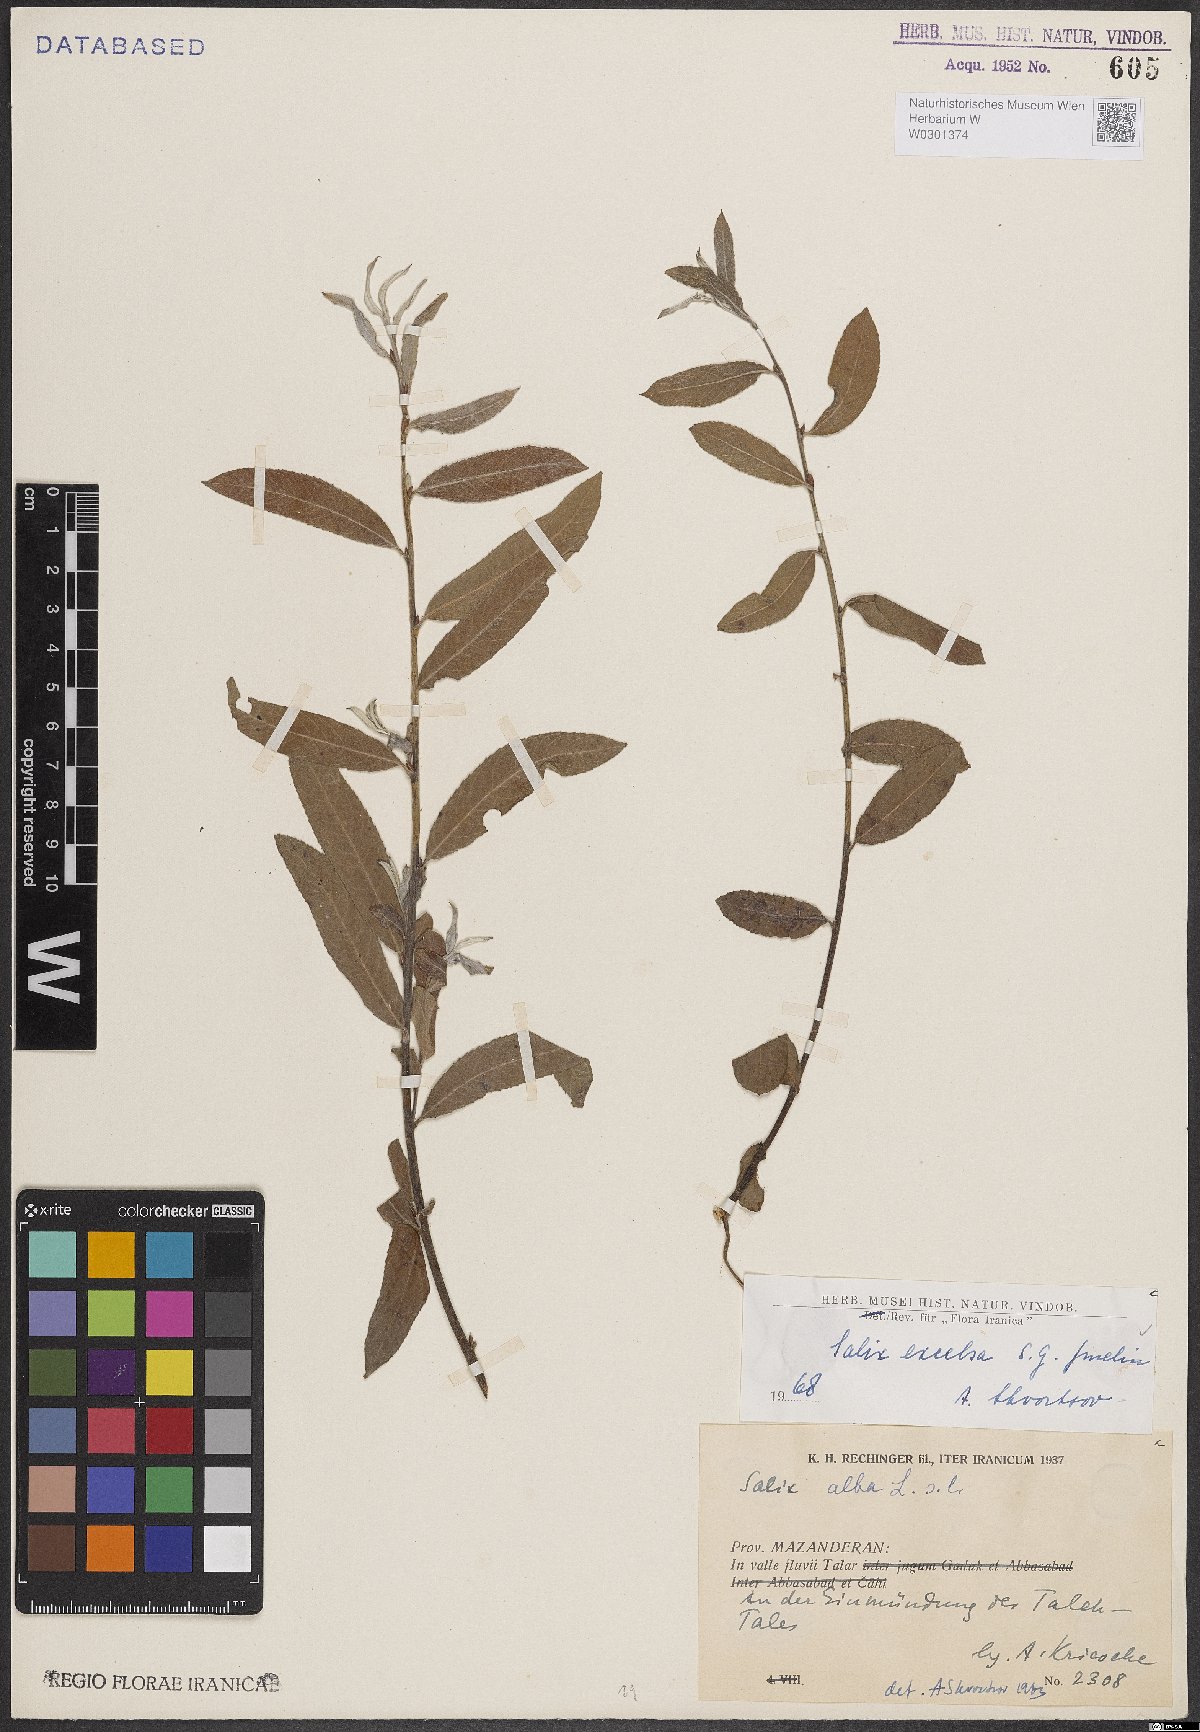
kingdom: Plantae
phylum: Tracheophyta
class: Magnoliopsida
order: Malpighiales
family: Salicaceae
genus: Salix
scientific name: Salix excelsa
